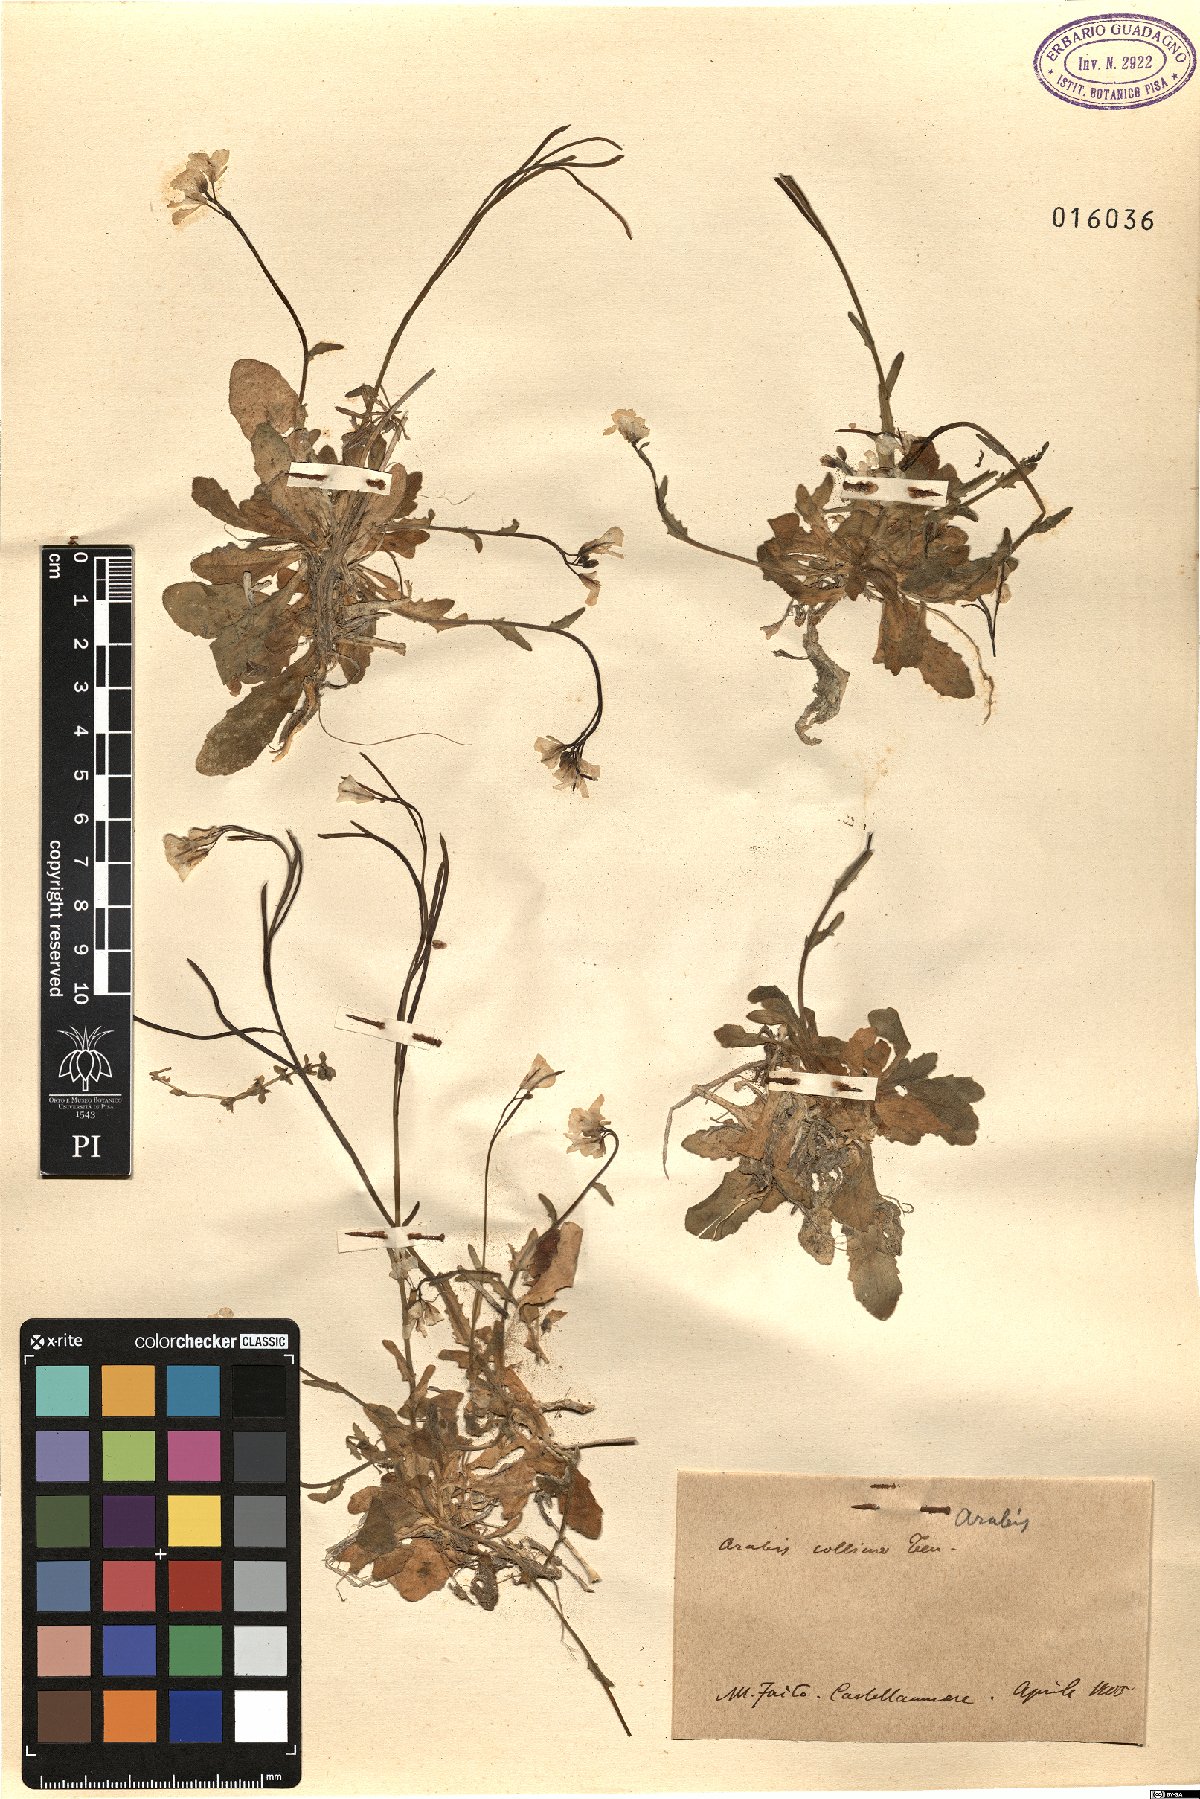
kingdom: Plantae
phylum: Tracheophyta
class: Magnoliopsida
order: Brassicales
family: Brassicaceae
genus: Arabis
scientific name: Arabis collina
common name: Rosy cress
